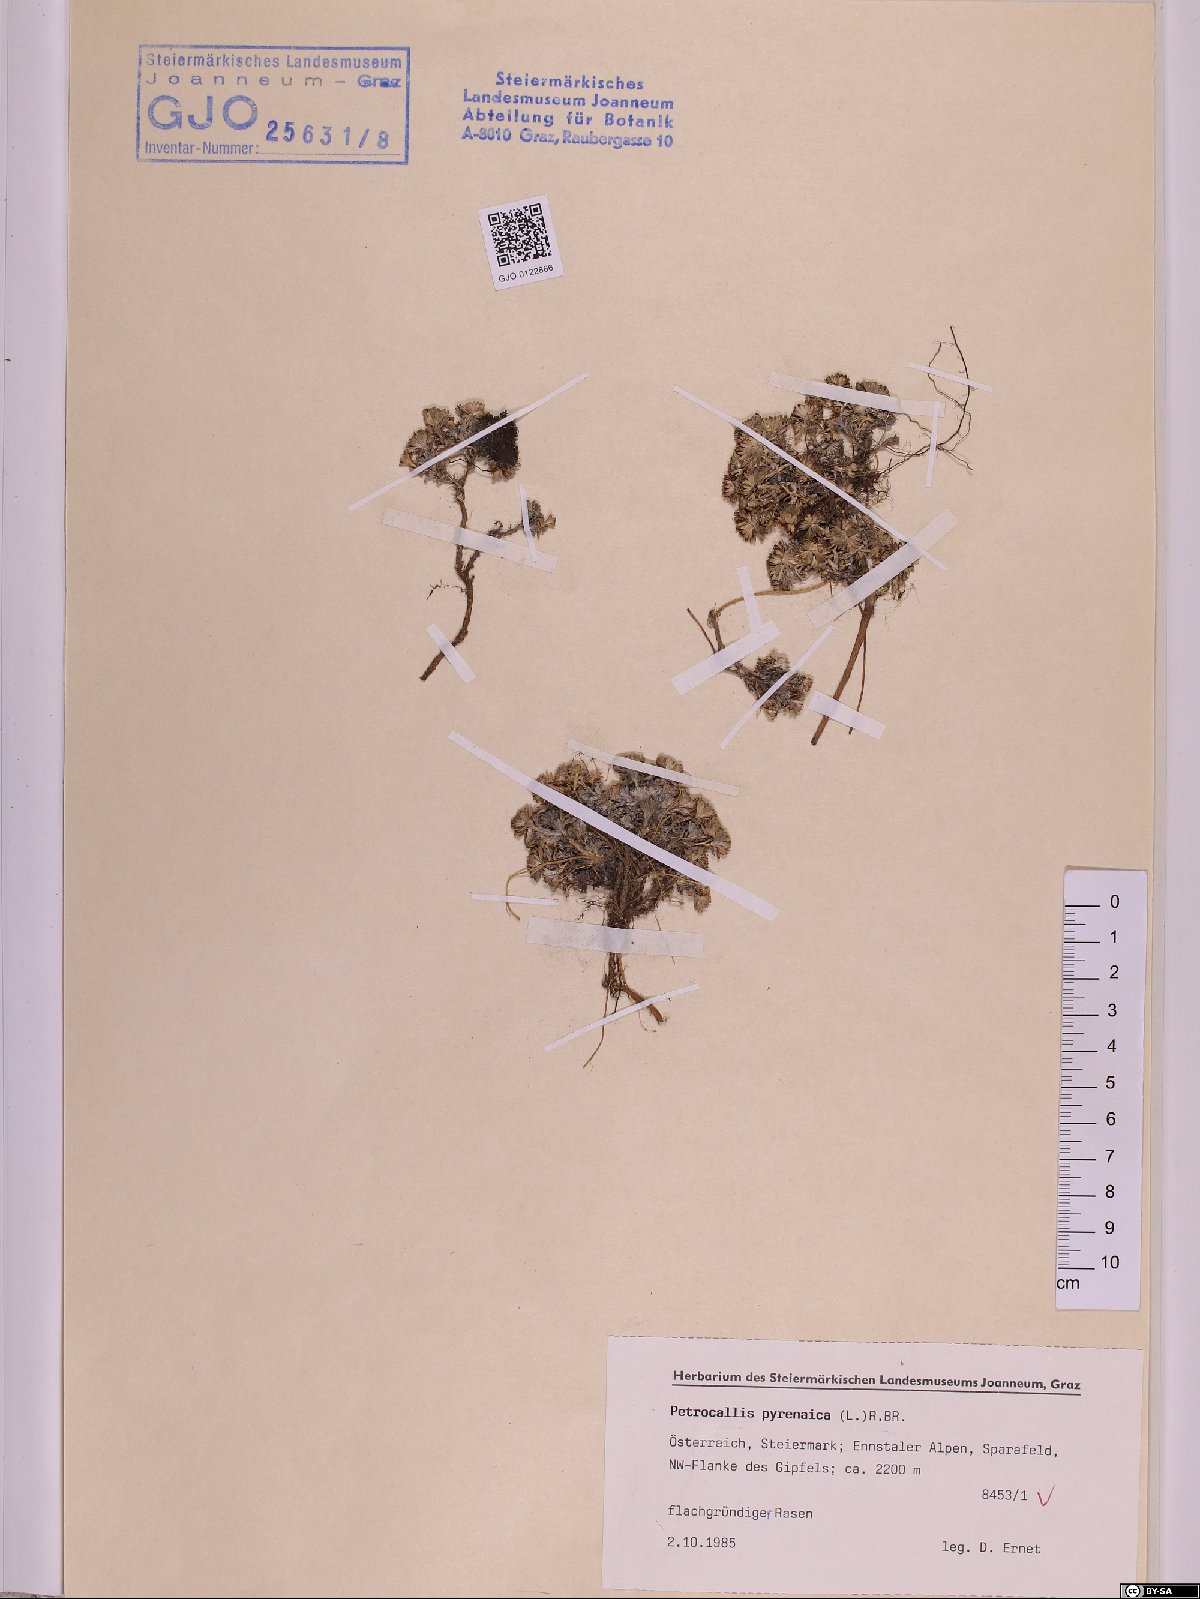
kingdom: Plantae
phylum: Tracheophyta
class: Magnoliopsida
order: Brassicales
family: Brassicaceae
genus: Petrocallis
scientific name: Petrocallis pyrenaica
